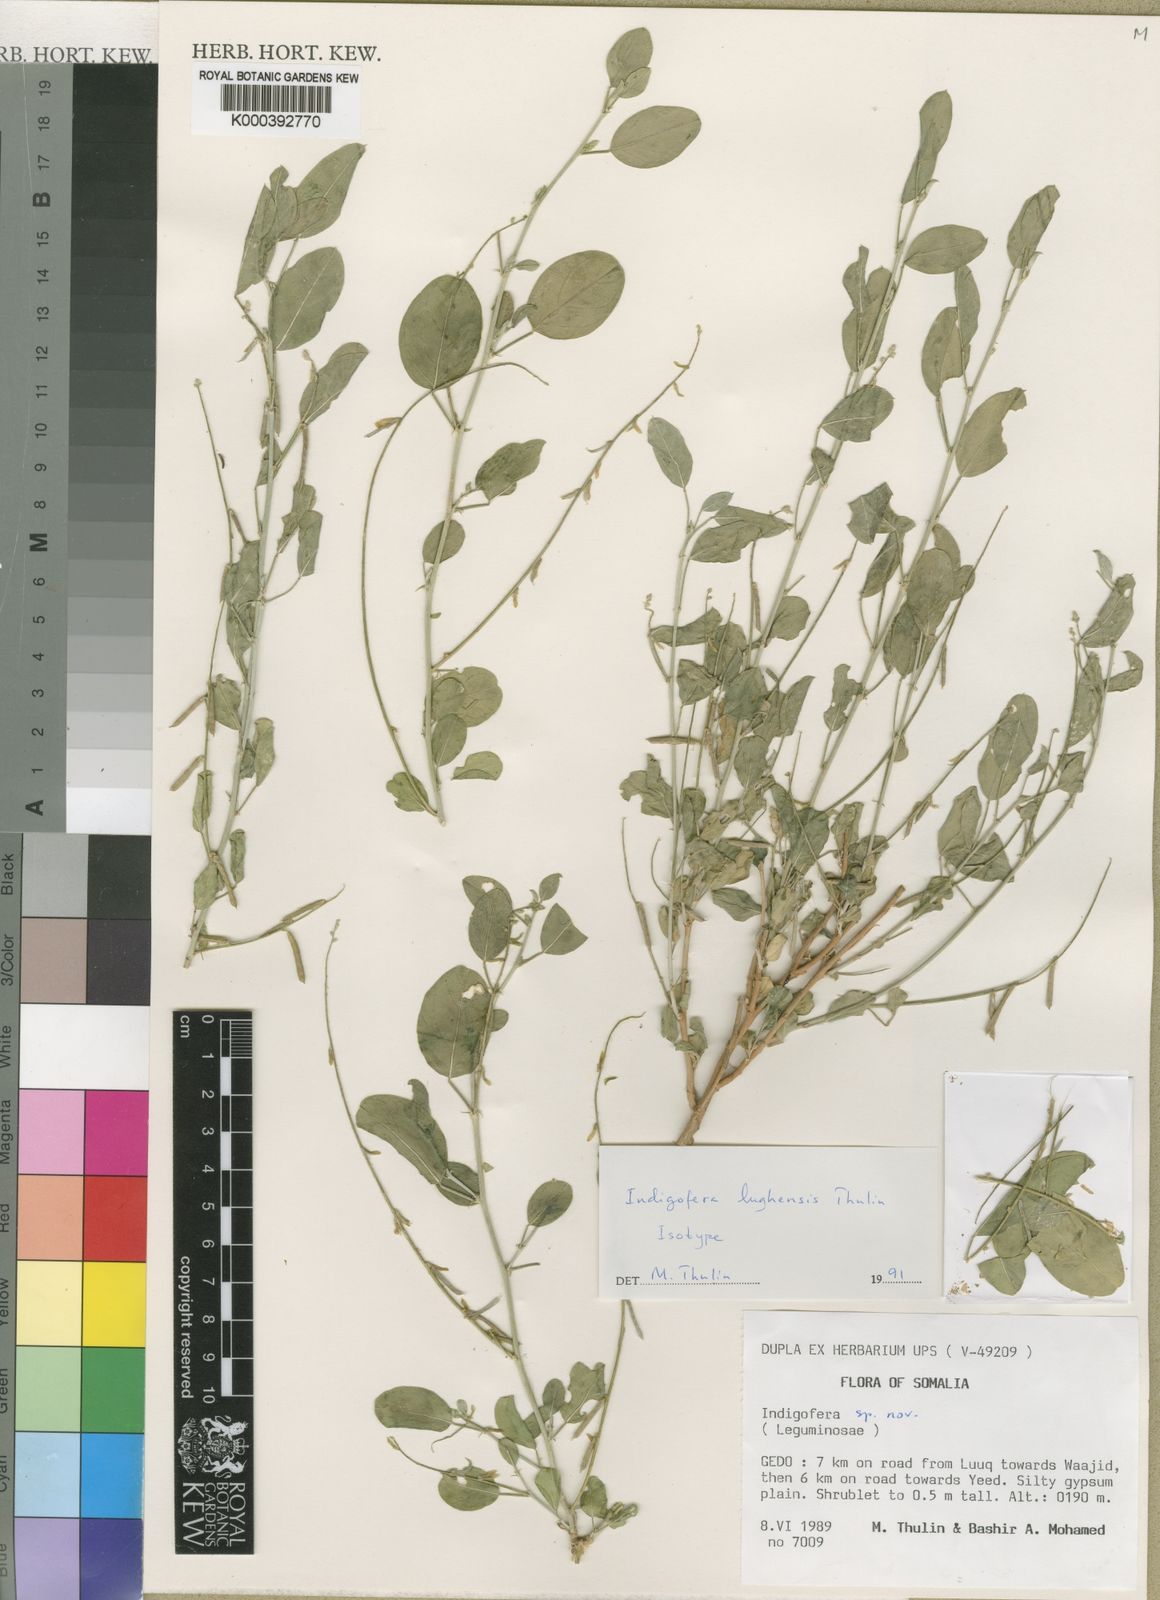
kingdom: Plantae
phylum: Tracheophyta
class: Magnoliopsida
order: Fabales
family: Fabaceae
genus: Indigofera
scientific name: Indigofera lughensis
